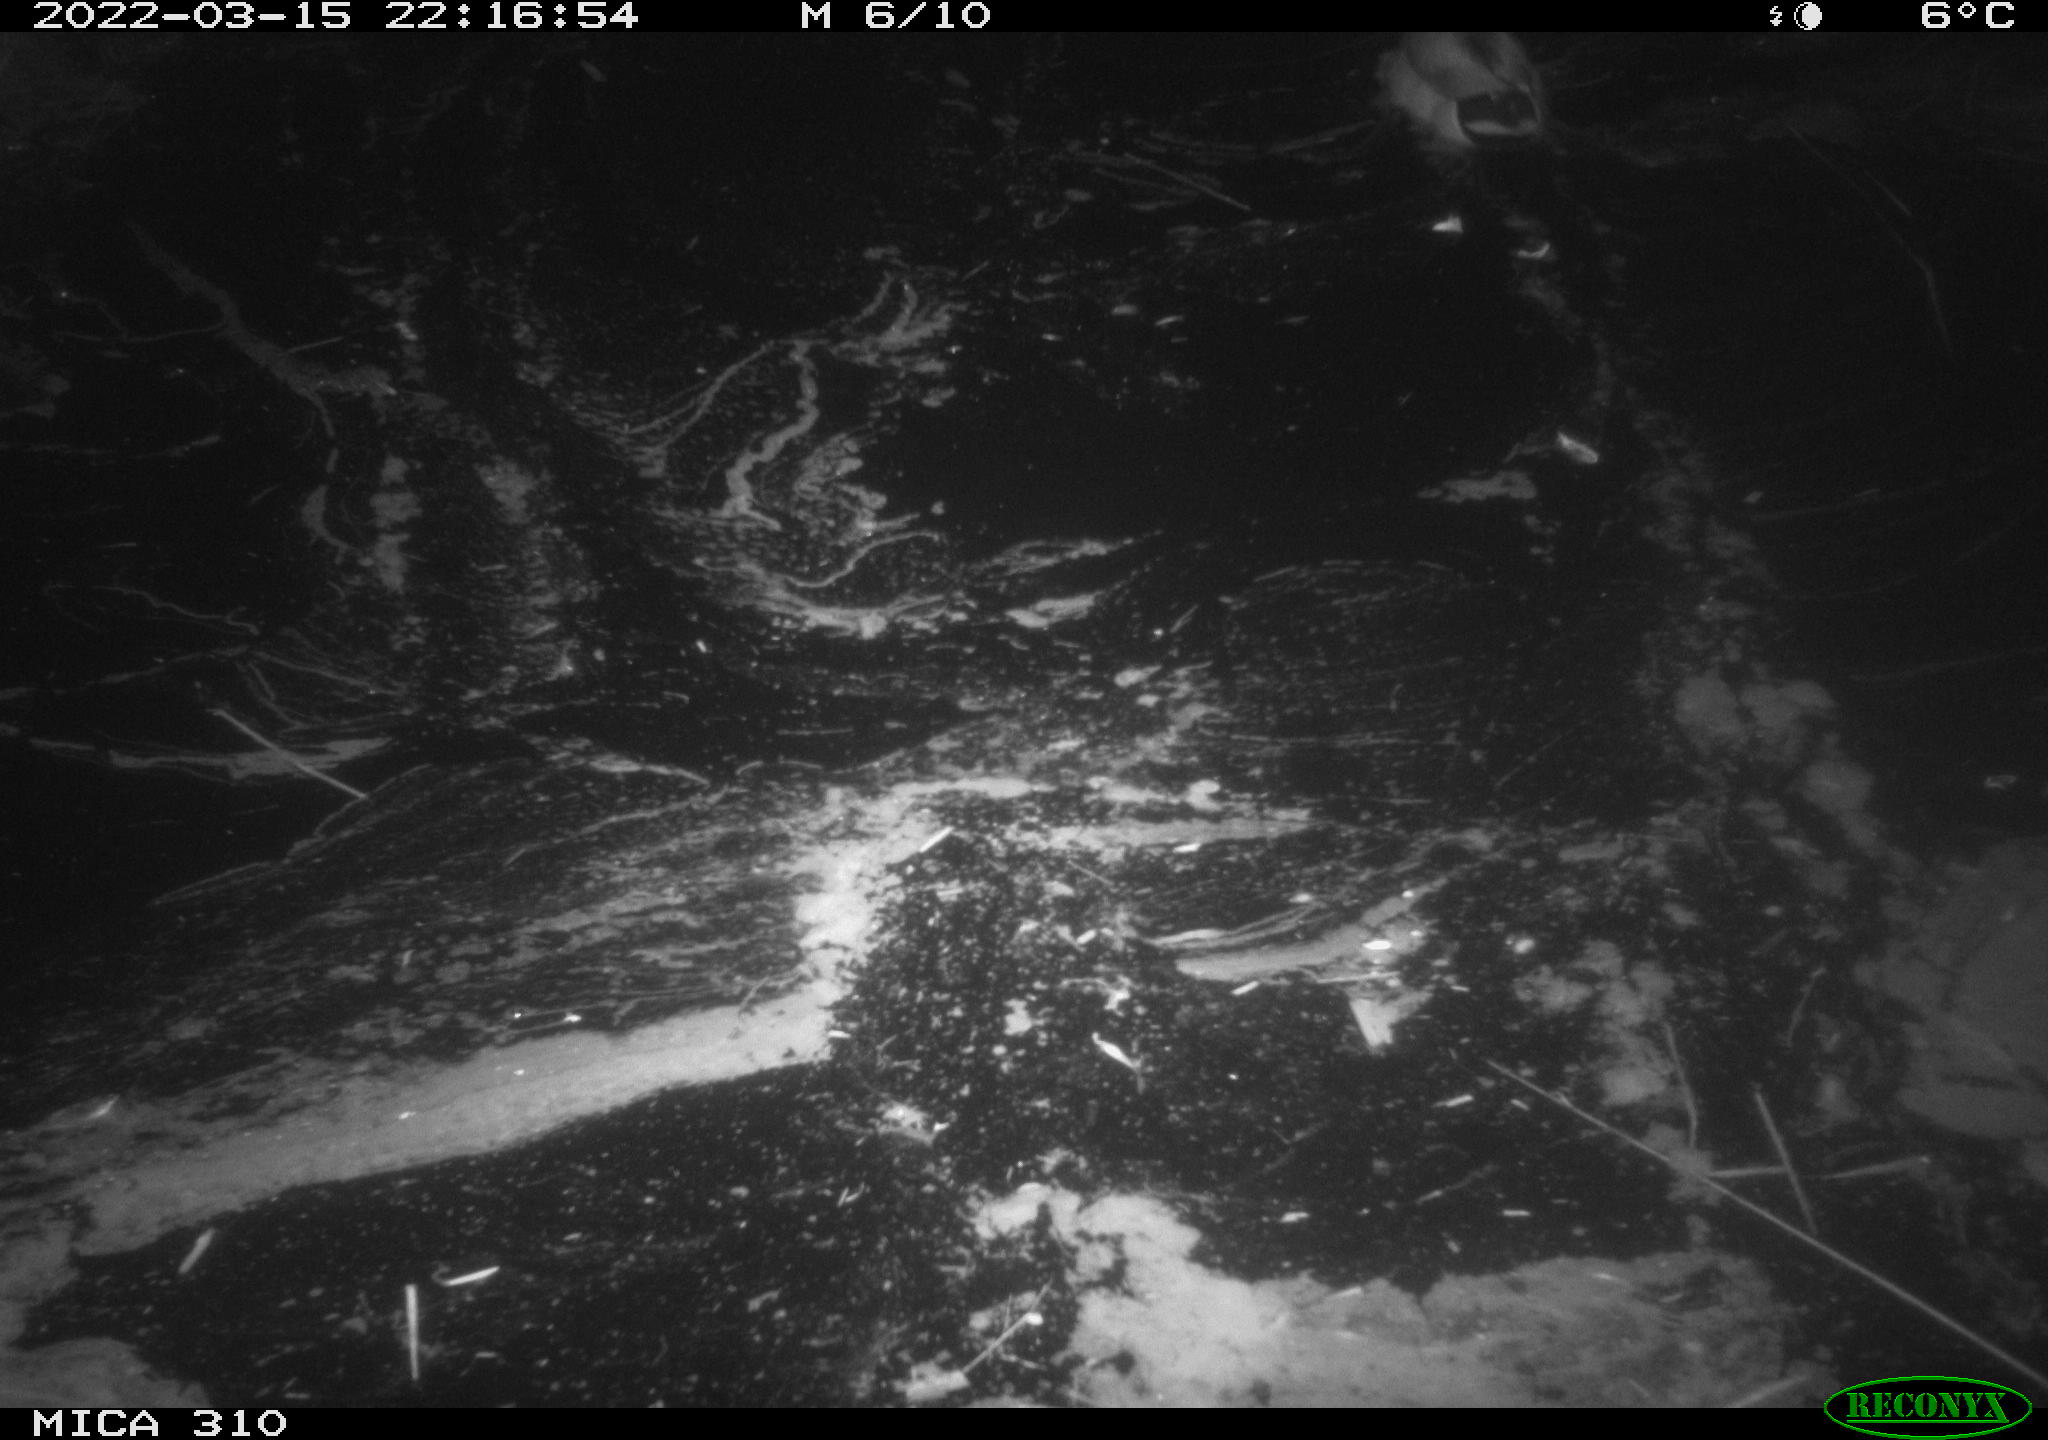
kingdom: Animalia
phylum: Chordata
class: Aves
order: Anseriformes
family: Anatidae
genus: Anas
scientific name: Anas platyrhynchos
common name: Mallard
